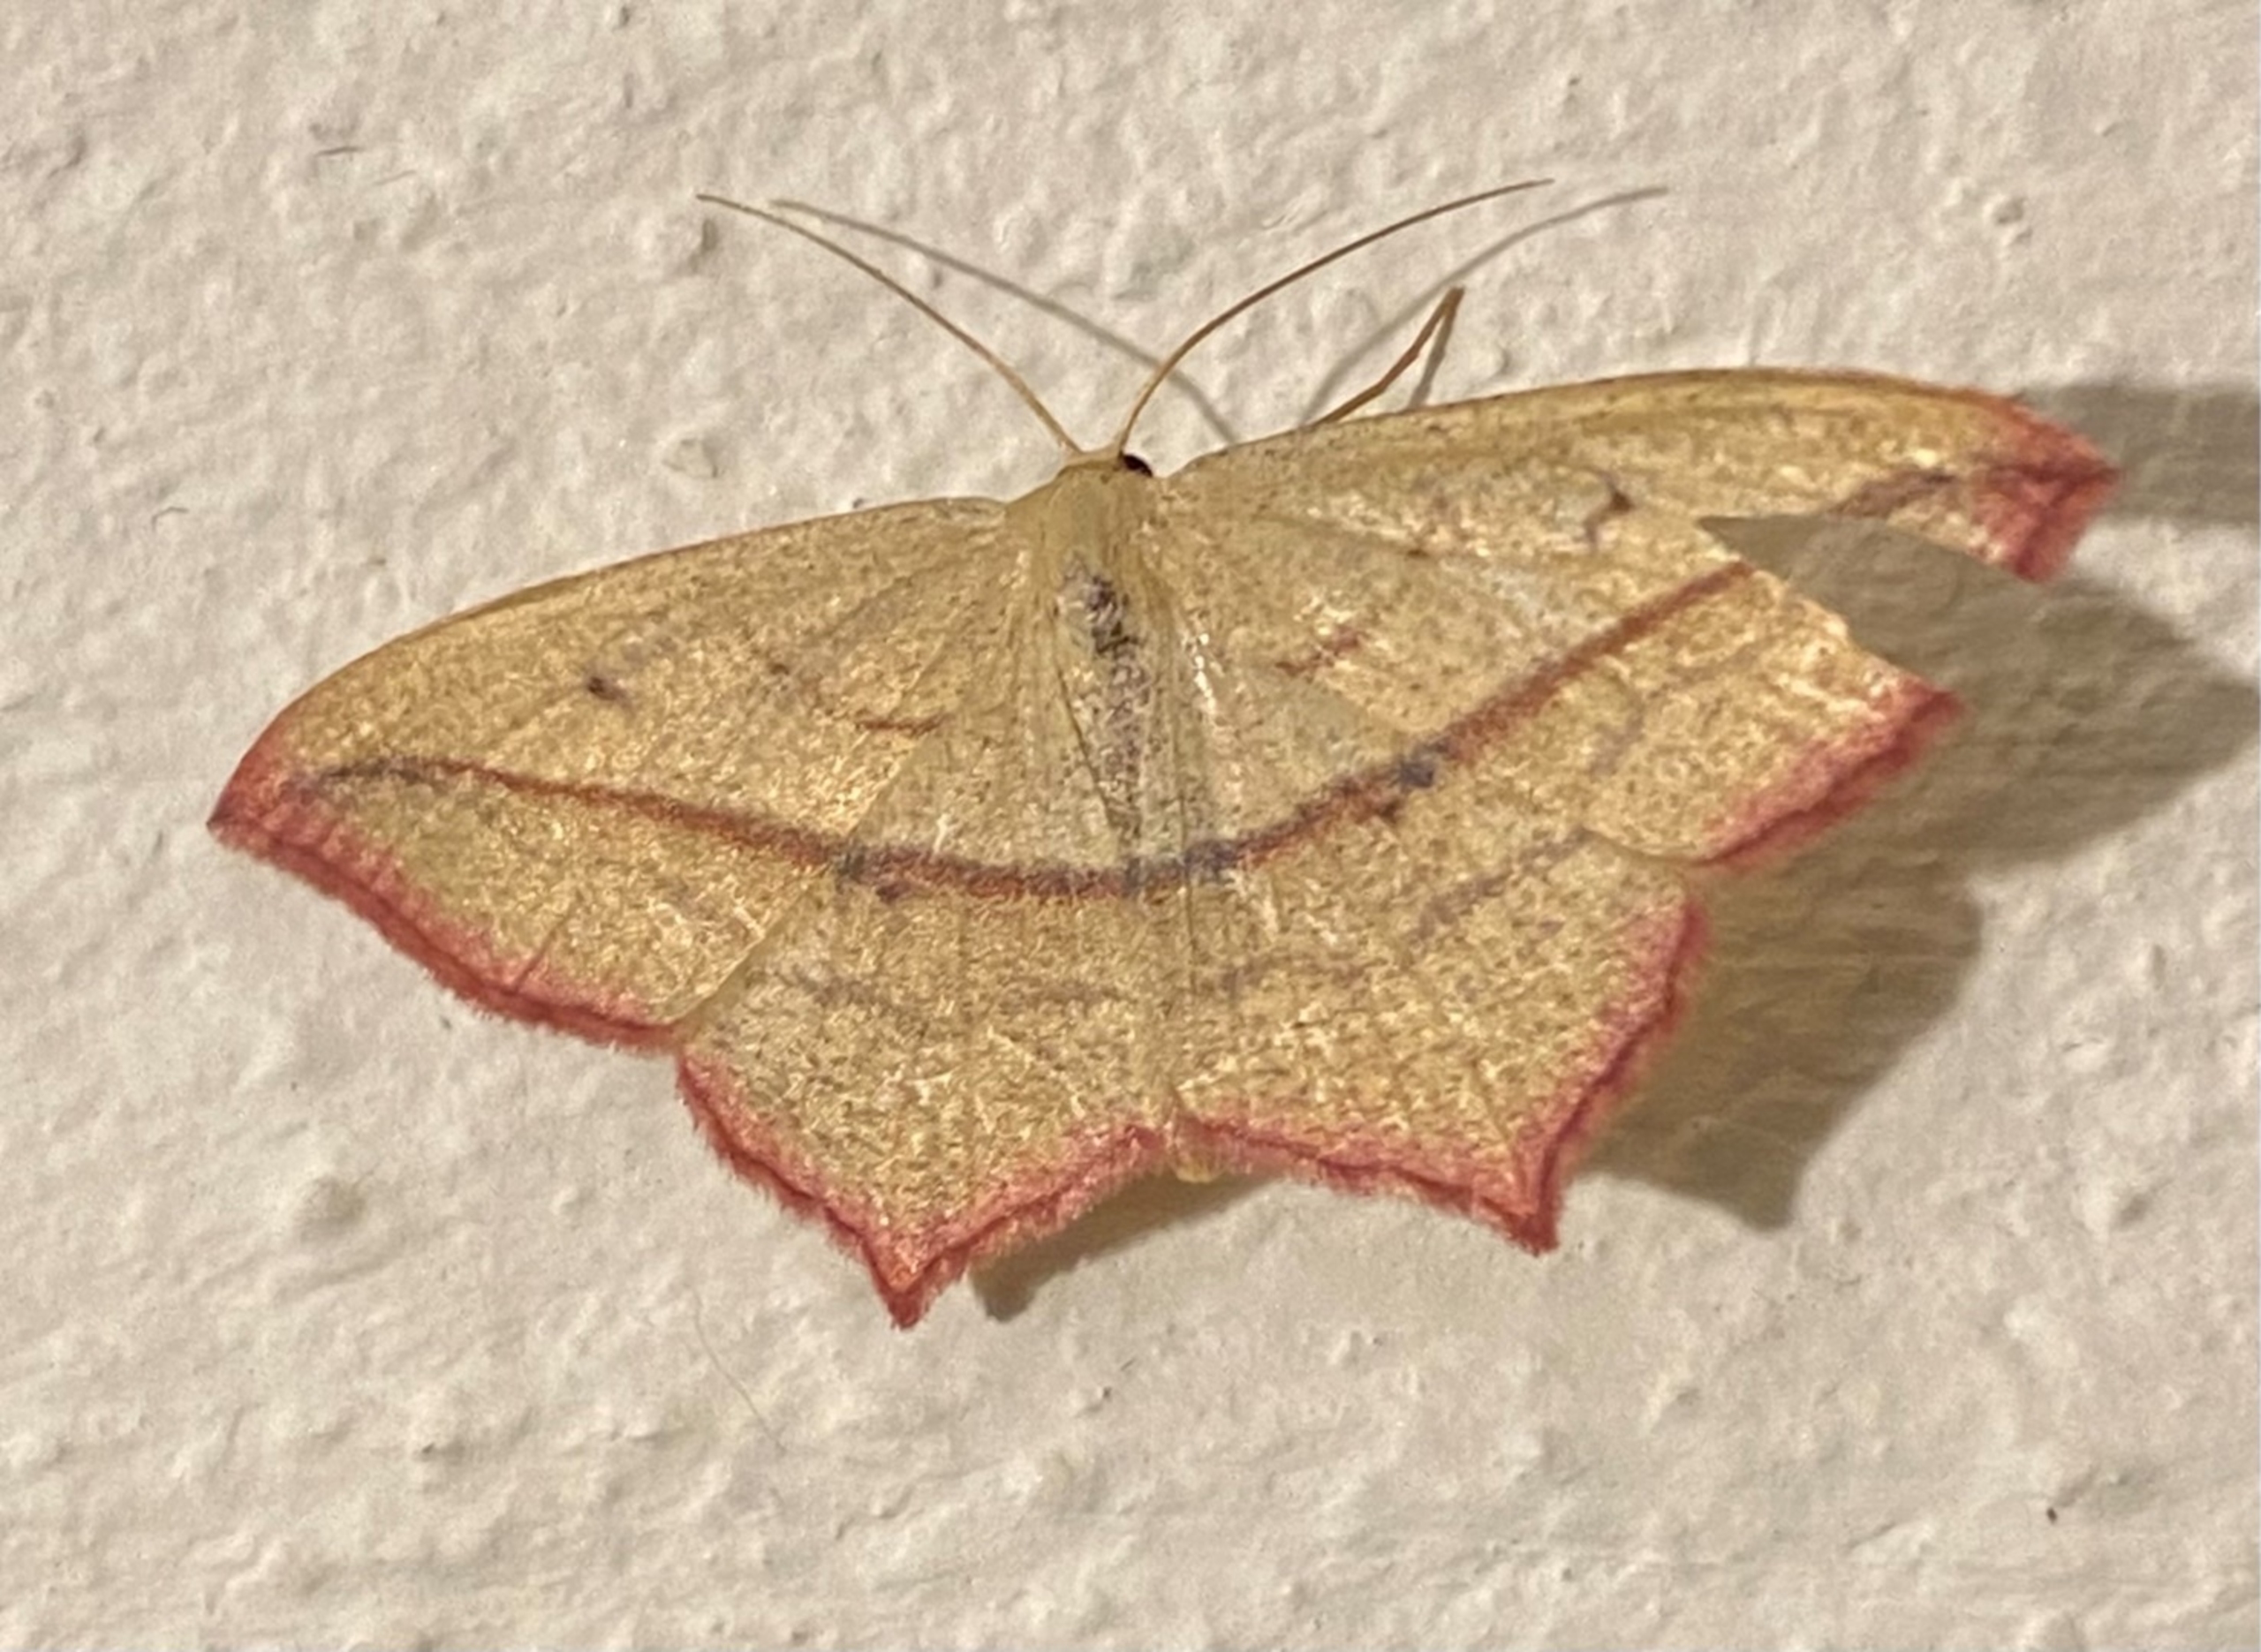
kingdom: Animalia
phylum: Arthropoda
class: Insecta
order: Lepidoptera
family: Geometridae
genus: Timandra
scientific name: Timandra comae
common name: Gul syremåler
